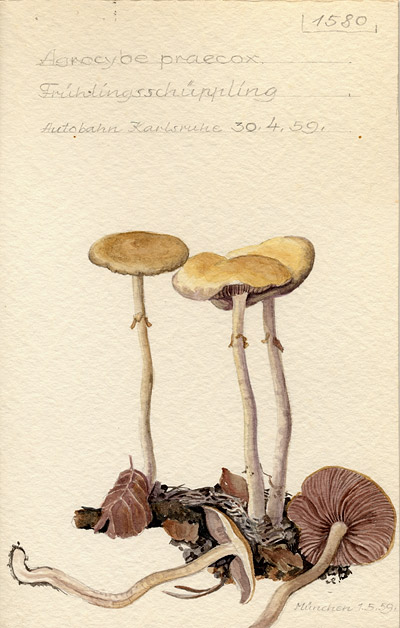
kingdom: Fungi
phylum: Basidiomycota
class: Agaricomycetes
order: Agaricales
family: Strophariaceae
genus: Agrocybe
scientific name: Agrocybe praecox
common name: Spring fieldcap
